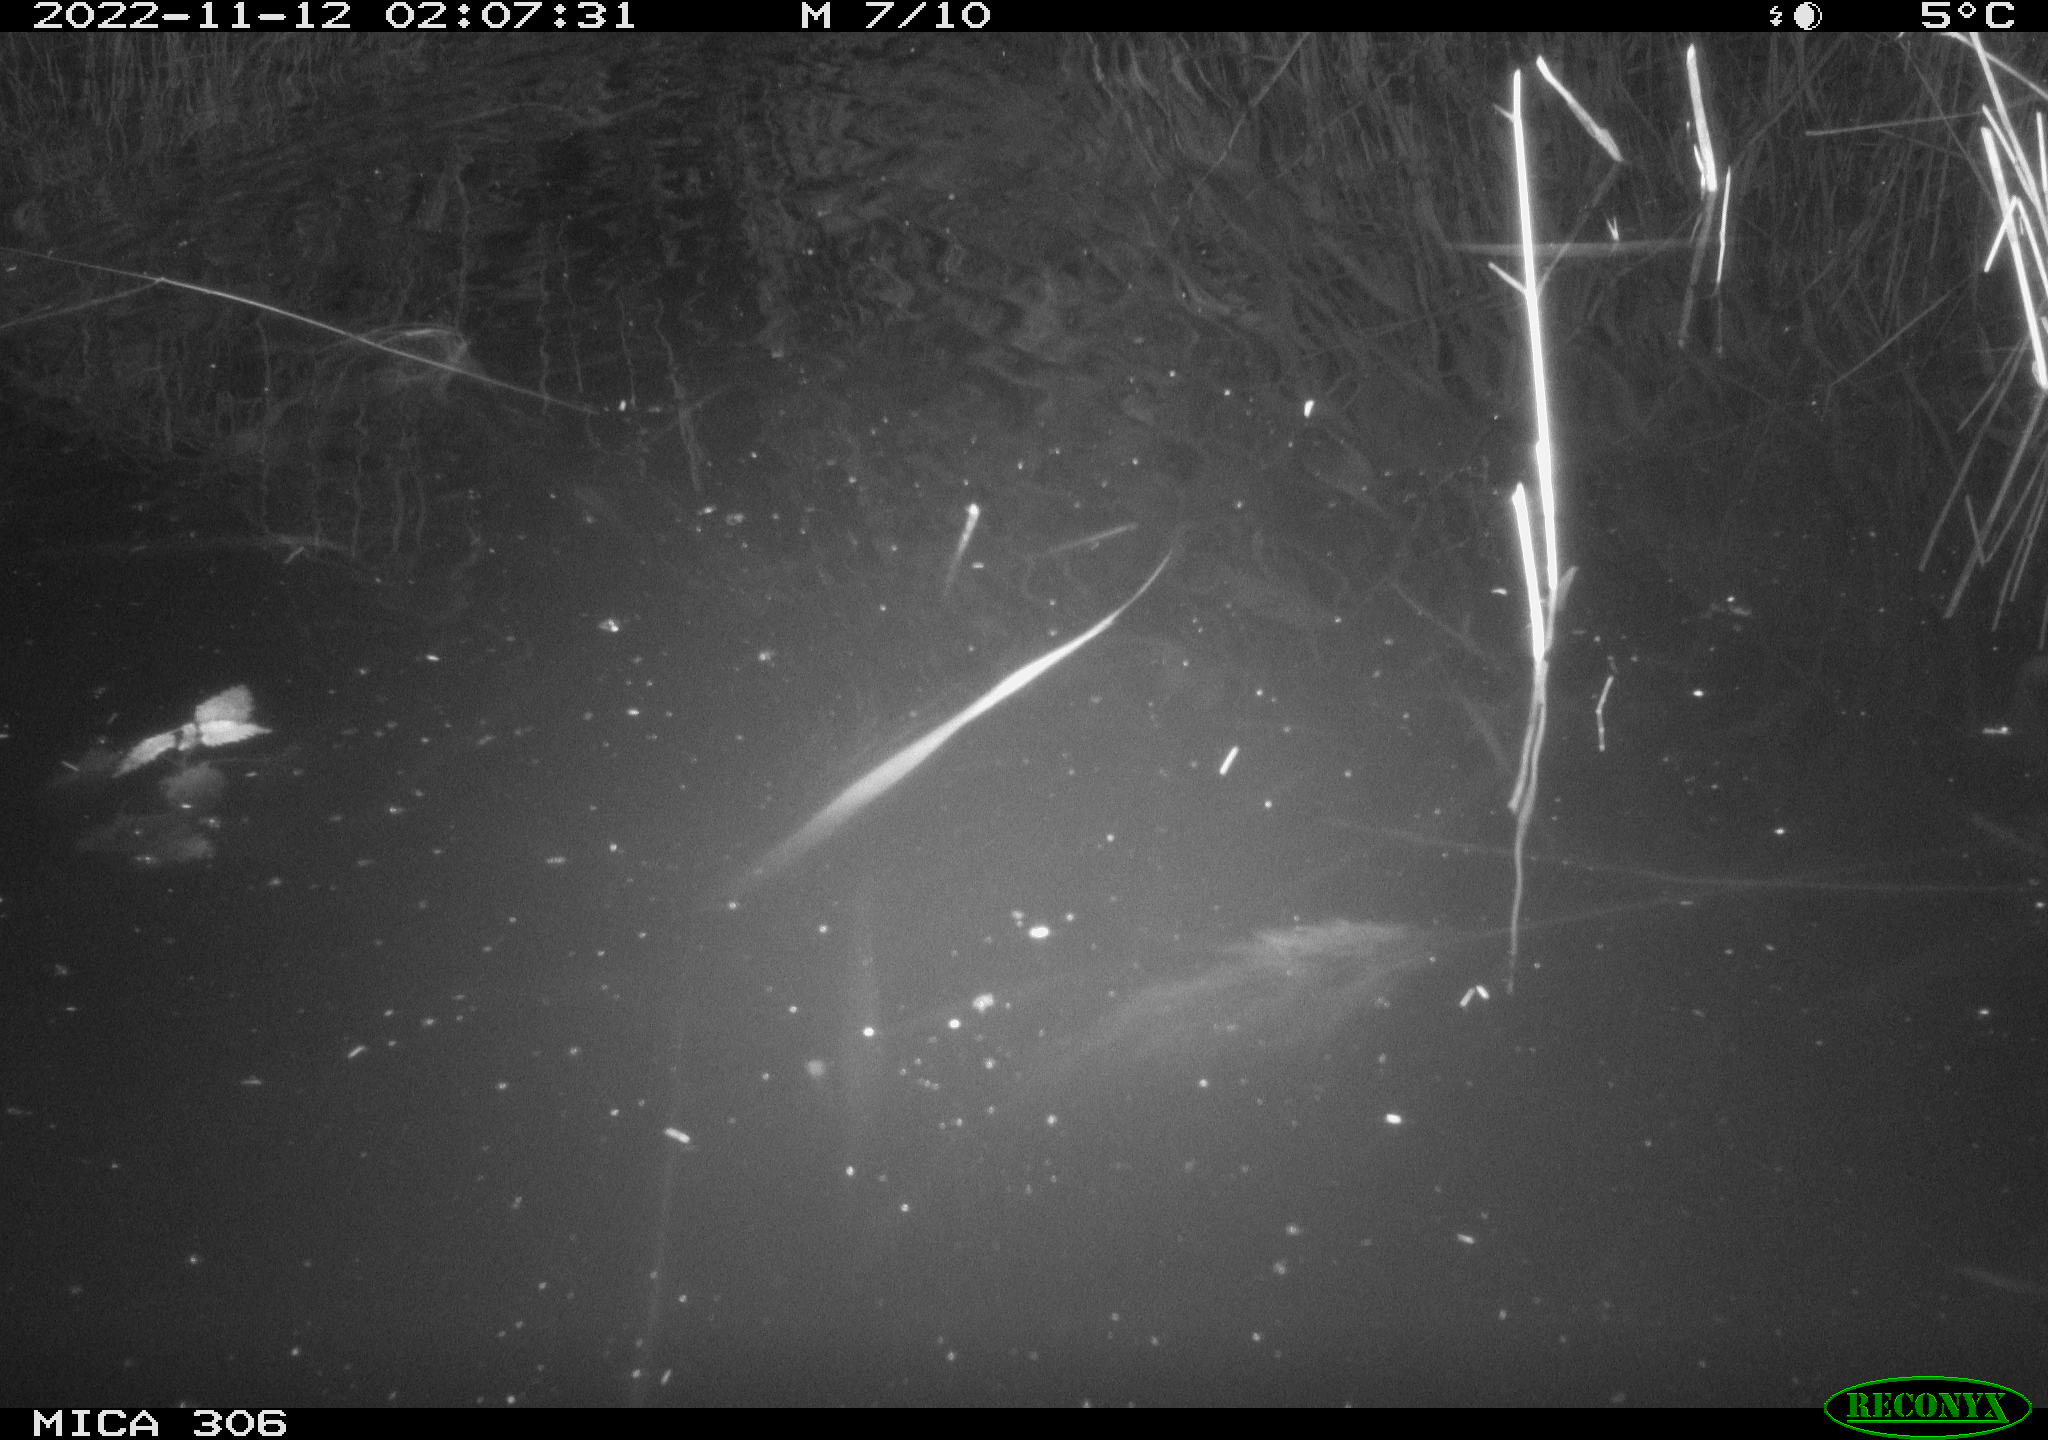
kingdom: Animalia
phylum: Chordata
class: Mammalia
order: Rodentia
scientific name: Rodentia
